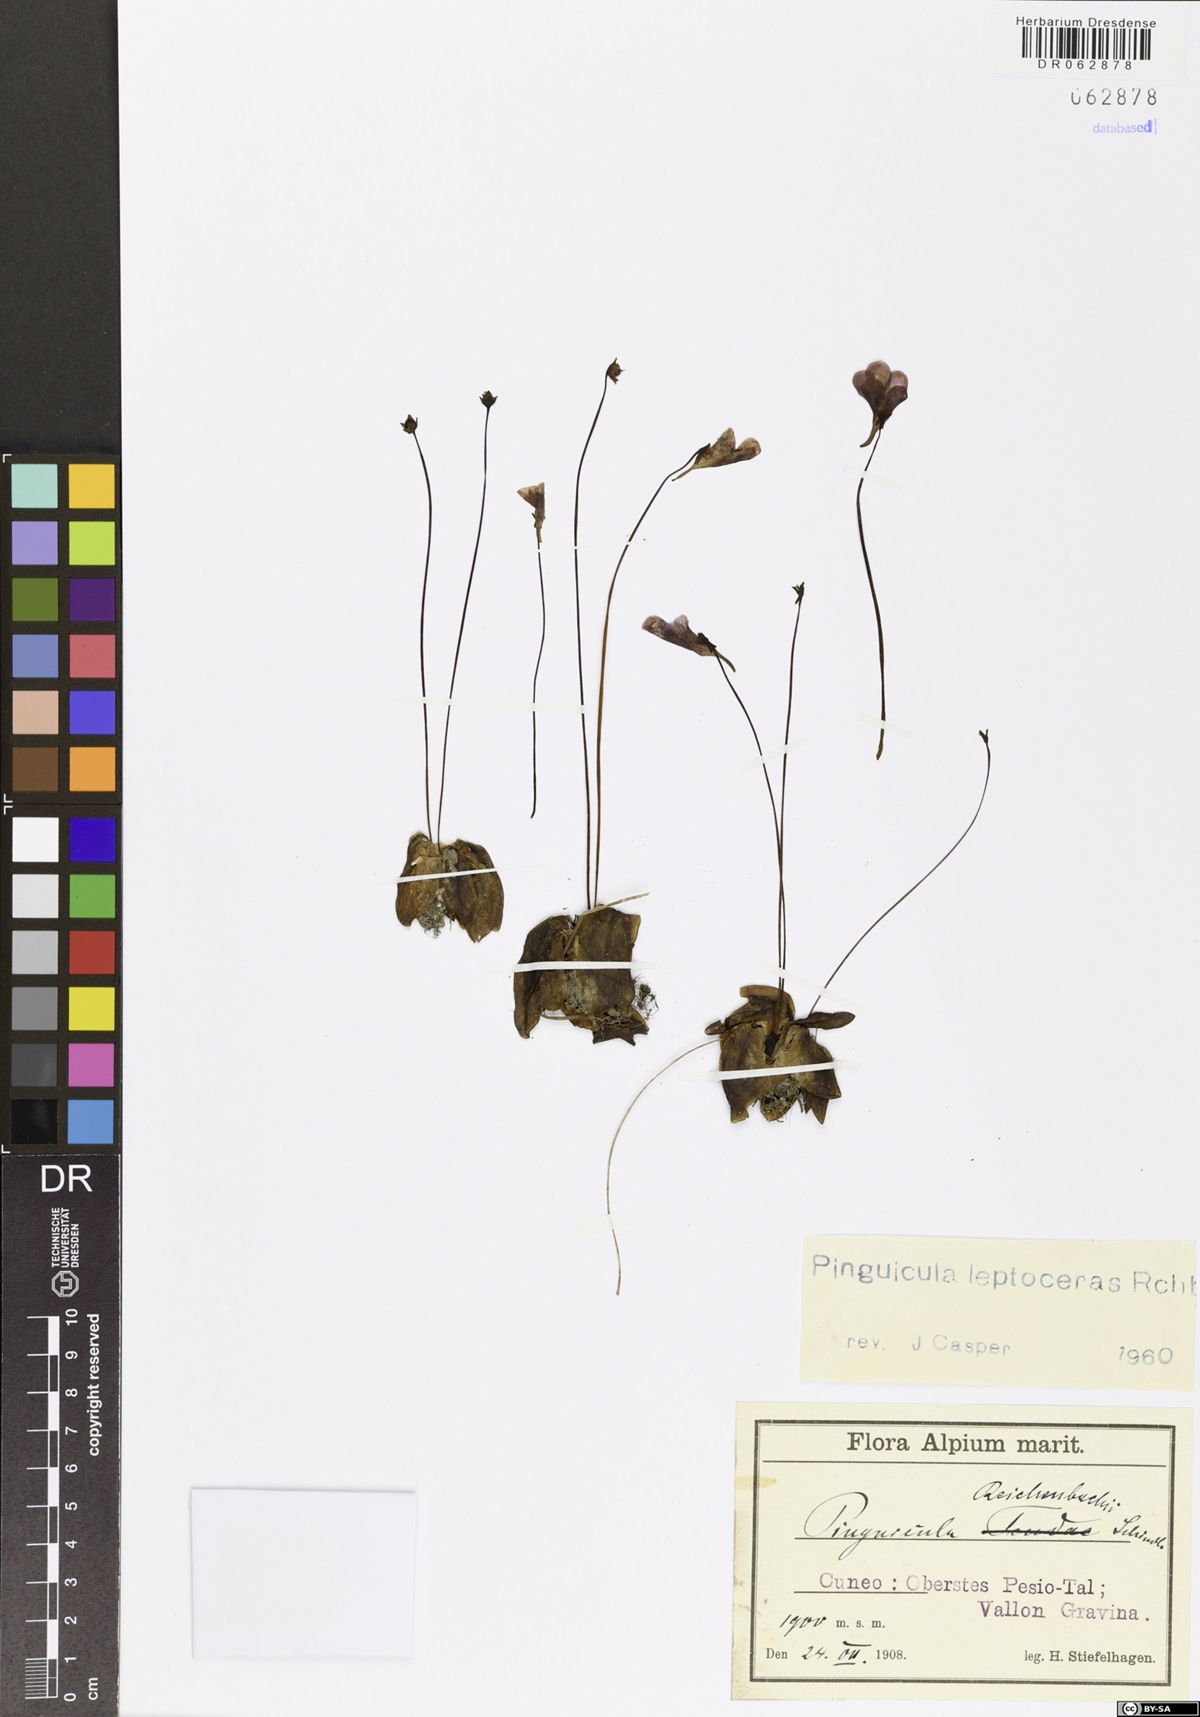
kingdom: Plantae
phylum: Tracheophyta
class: Magnoliopsida
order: Lamiales
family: Lentibulariaceae
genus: Pinguicula
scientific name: Pinguicula leptoceras
